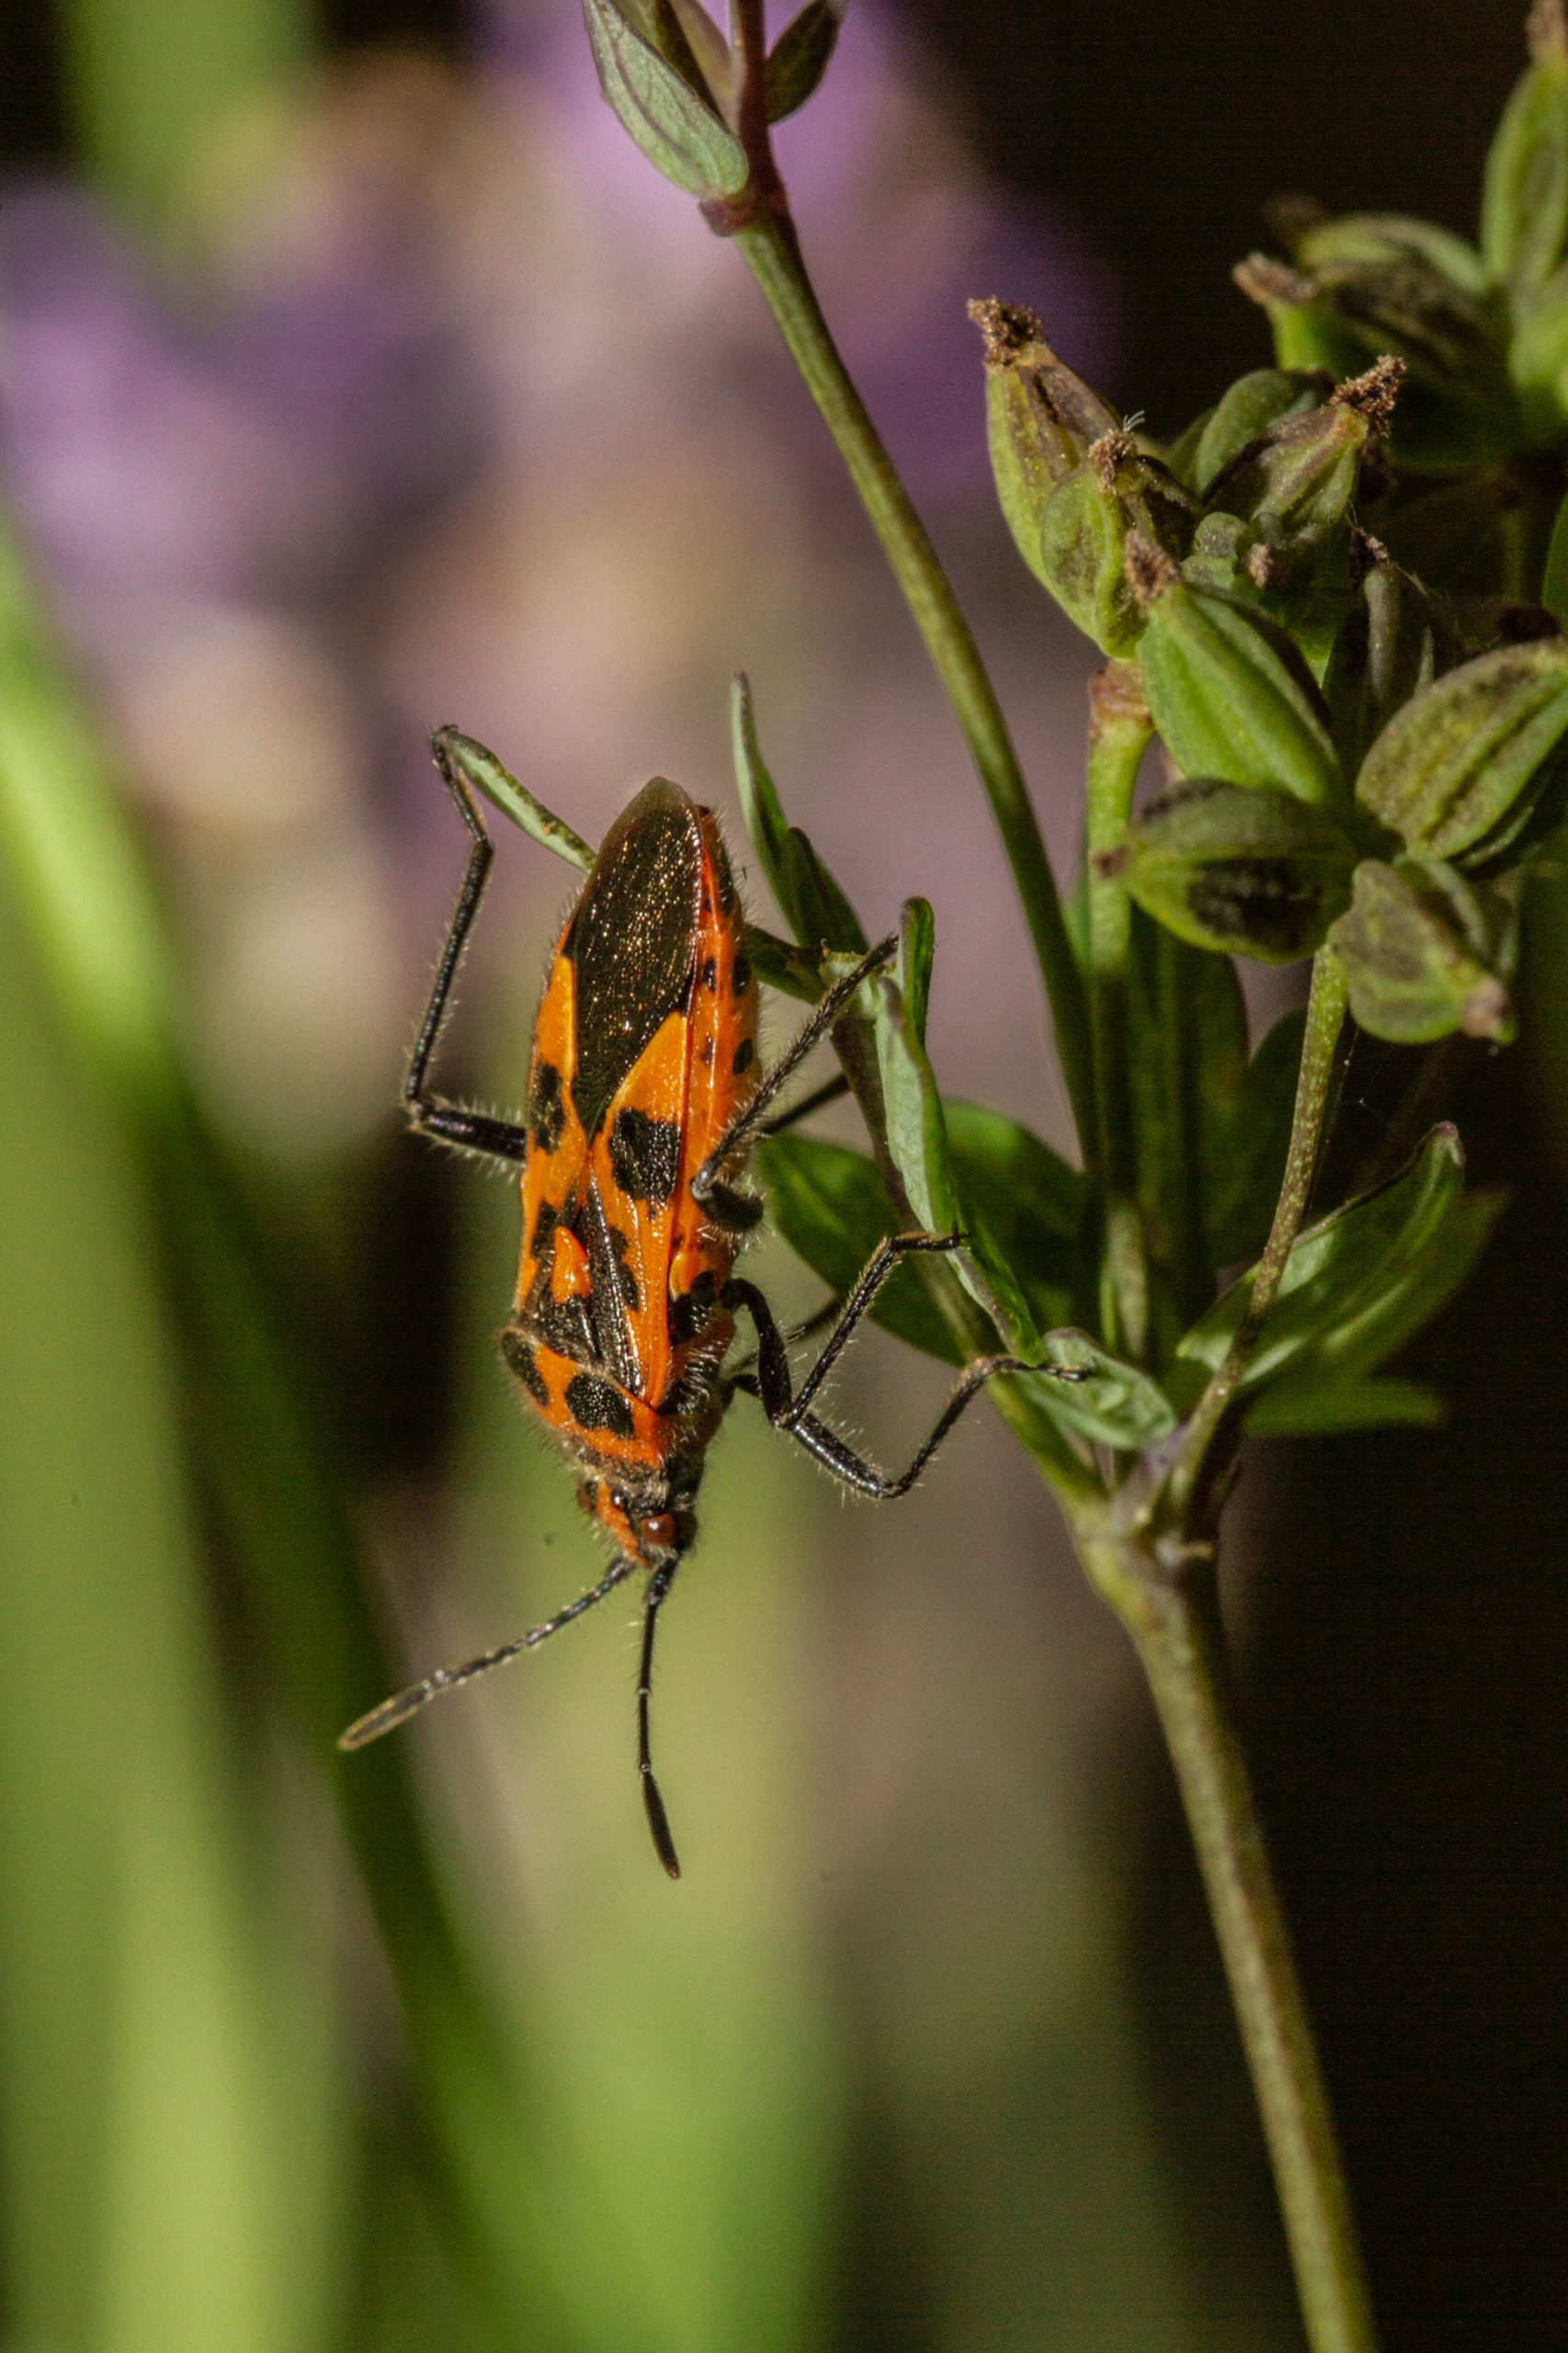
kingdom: Animalia
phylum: Arthropoda
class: Insecta
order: Hemiptera
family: Rhopalidae
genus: Corizus
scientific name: Corizus hyoscyami
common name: Rød kanttæge
